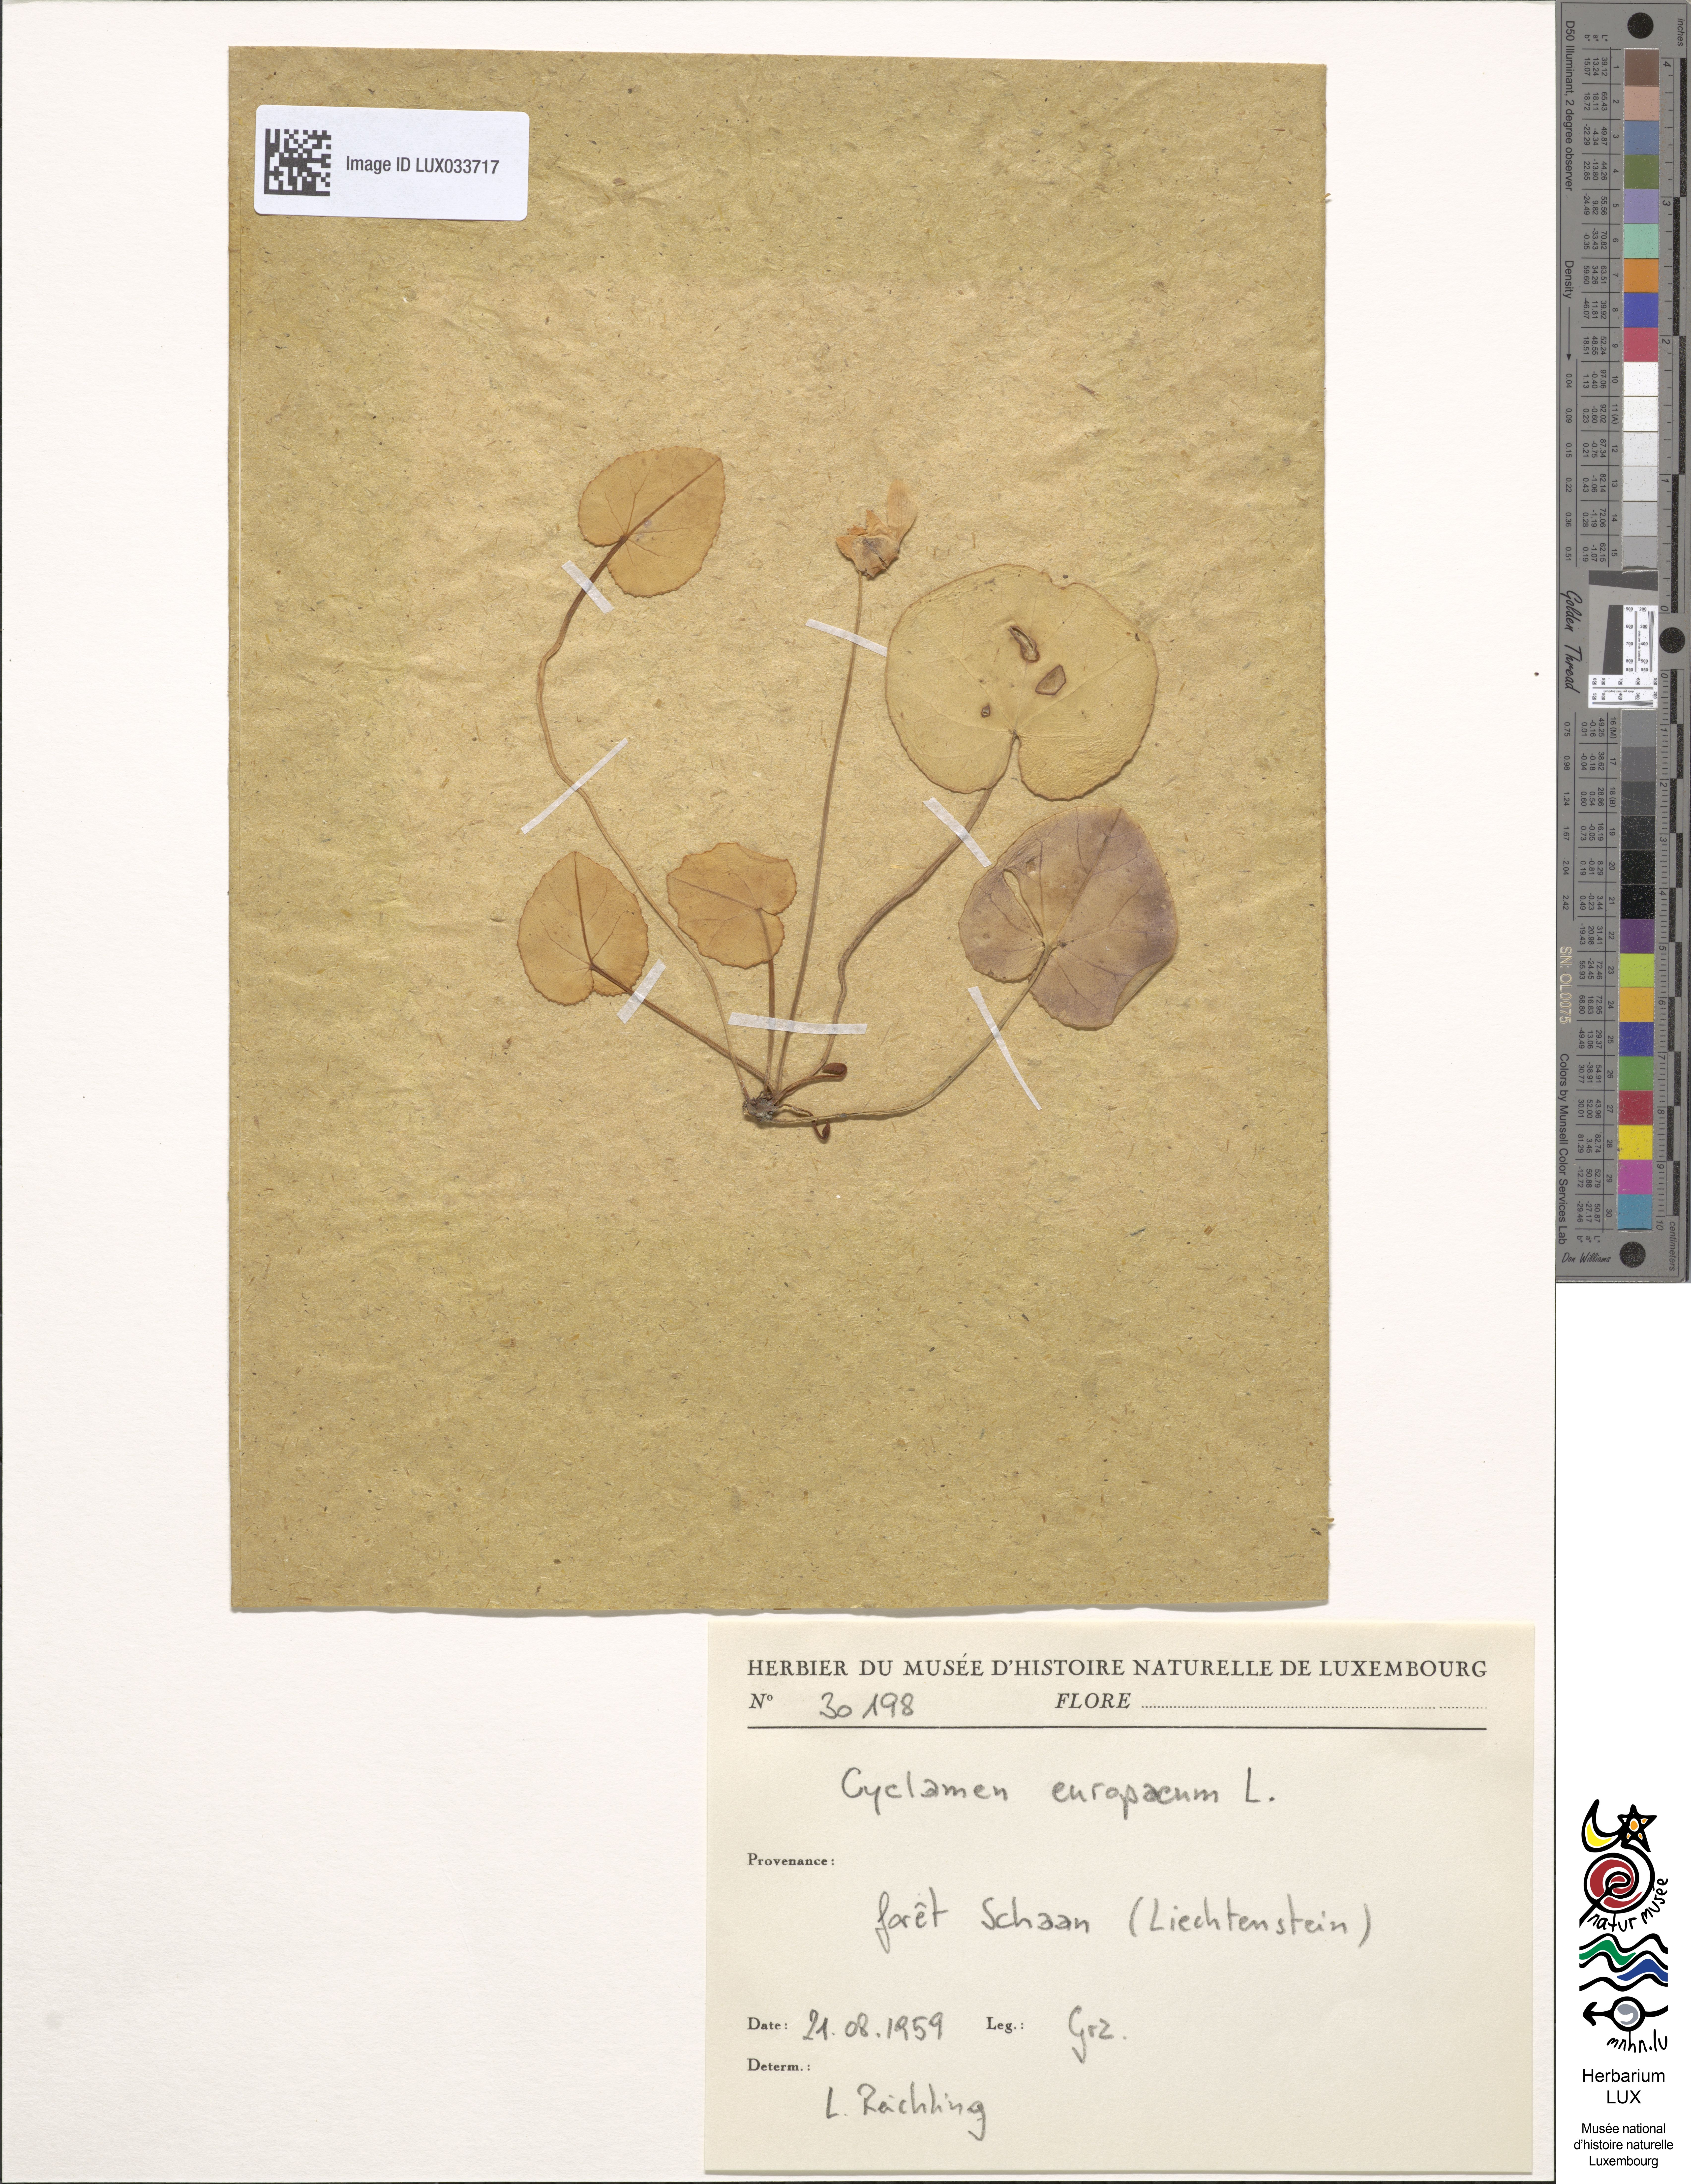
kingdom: Plantae
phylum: Tracheophyta
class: Magnoliopsida
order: Ericales
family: Primulaceae
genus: Cyclamen
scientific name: Cyclamen europaeum
